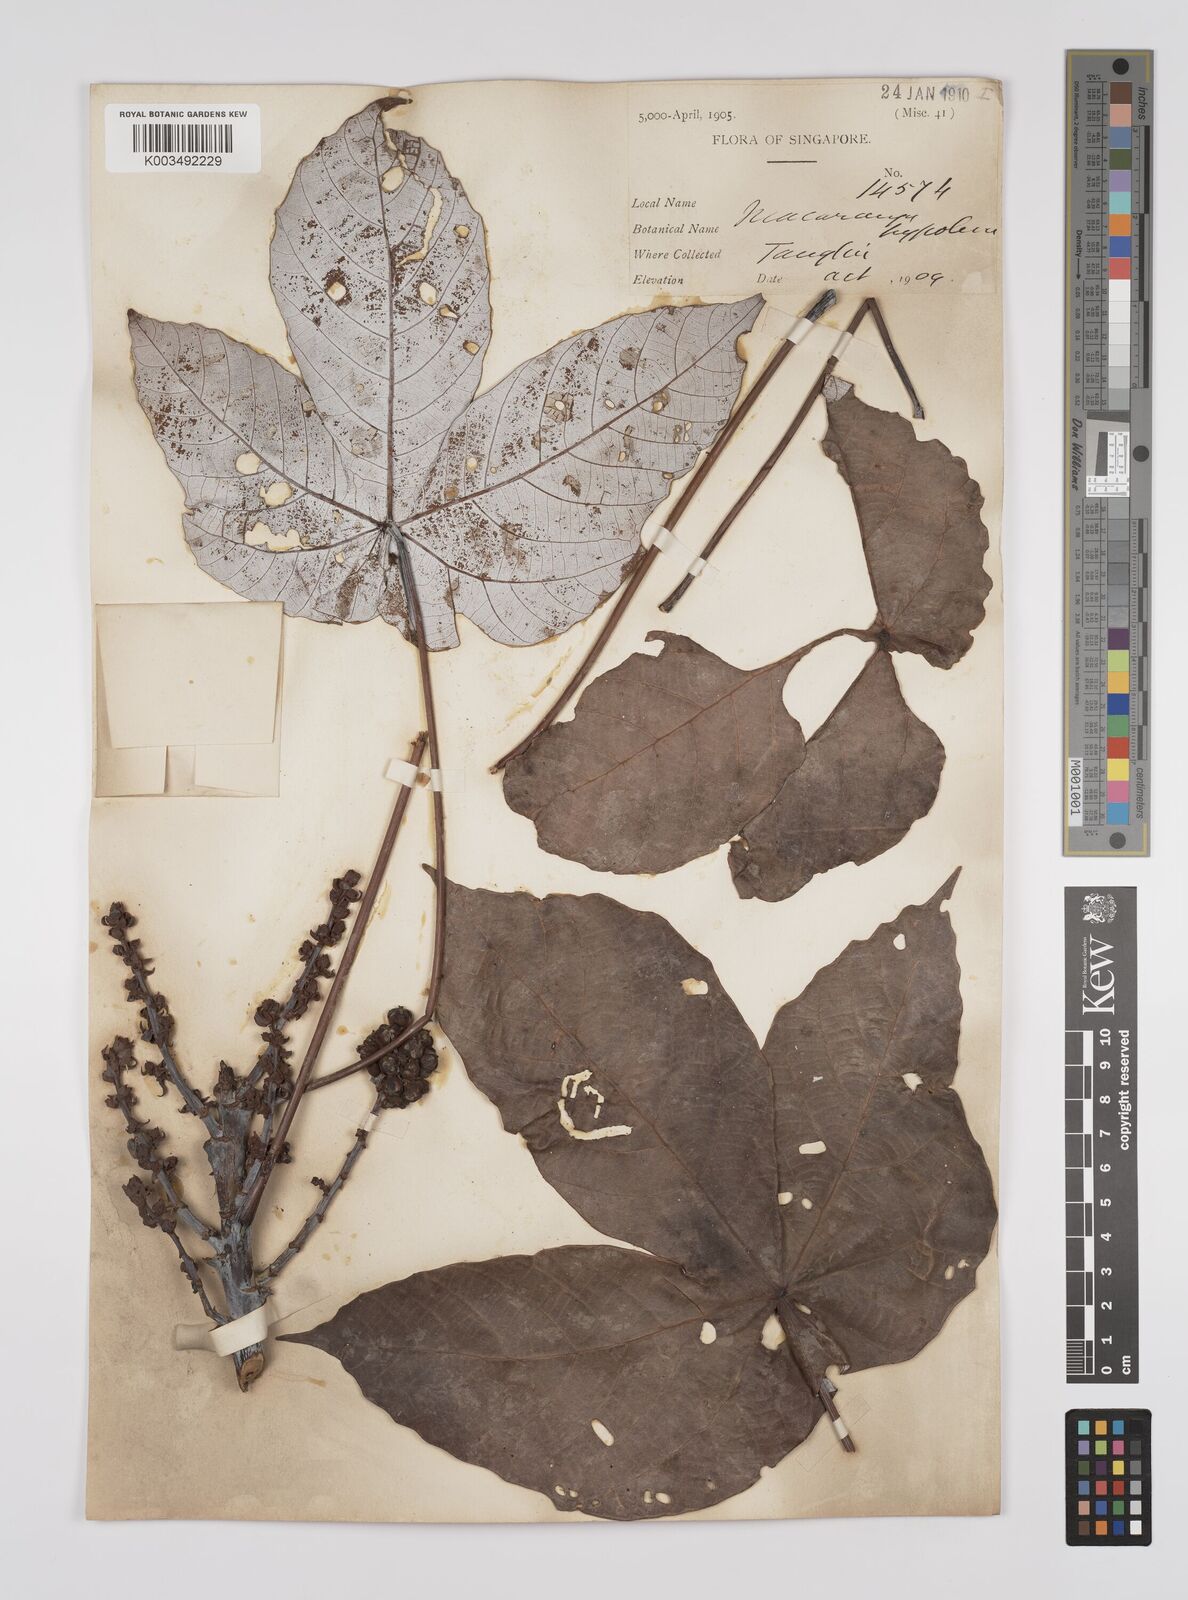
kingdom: Plantae
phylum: Tracheophyta
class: Magnoliopsida
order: Malpighiales
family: Euphorbiaceae
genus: Macaranga
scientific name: Macaranga hypoleuca
